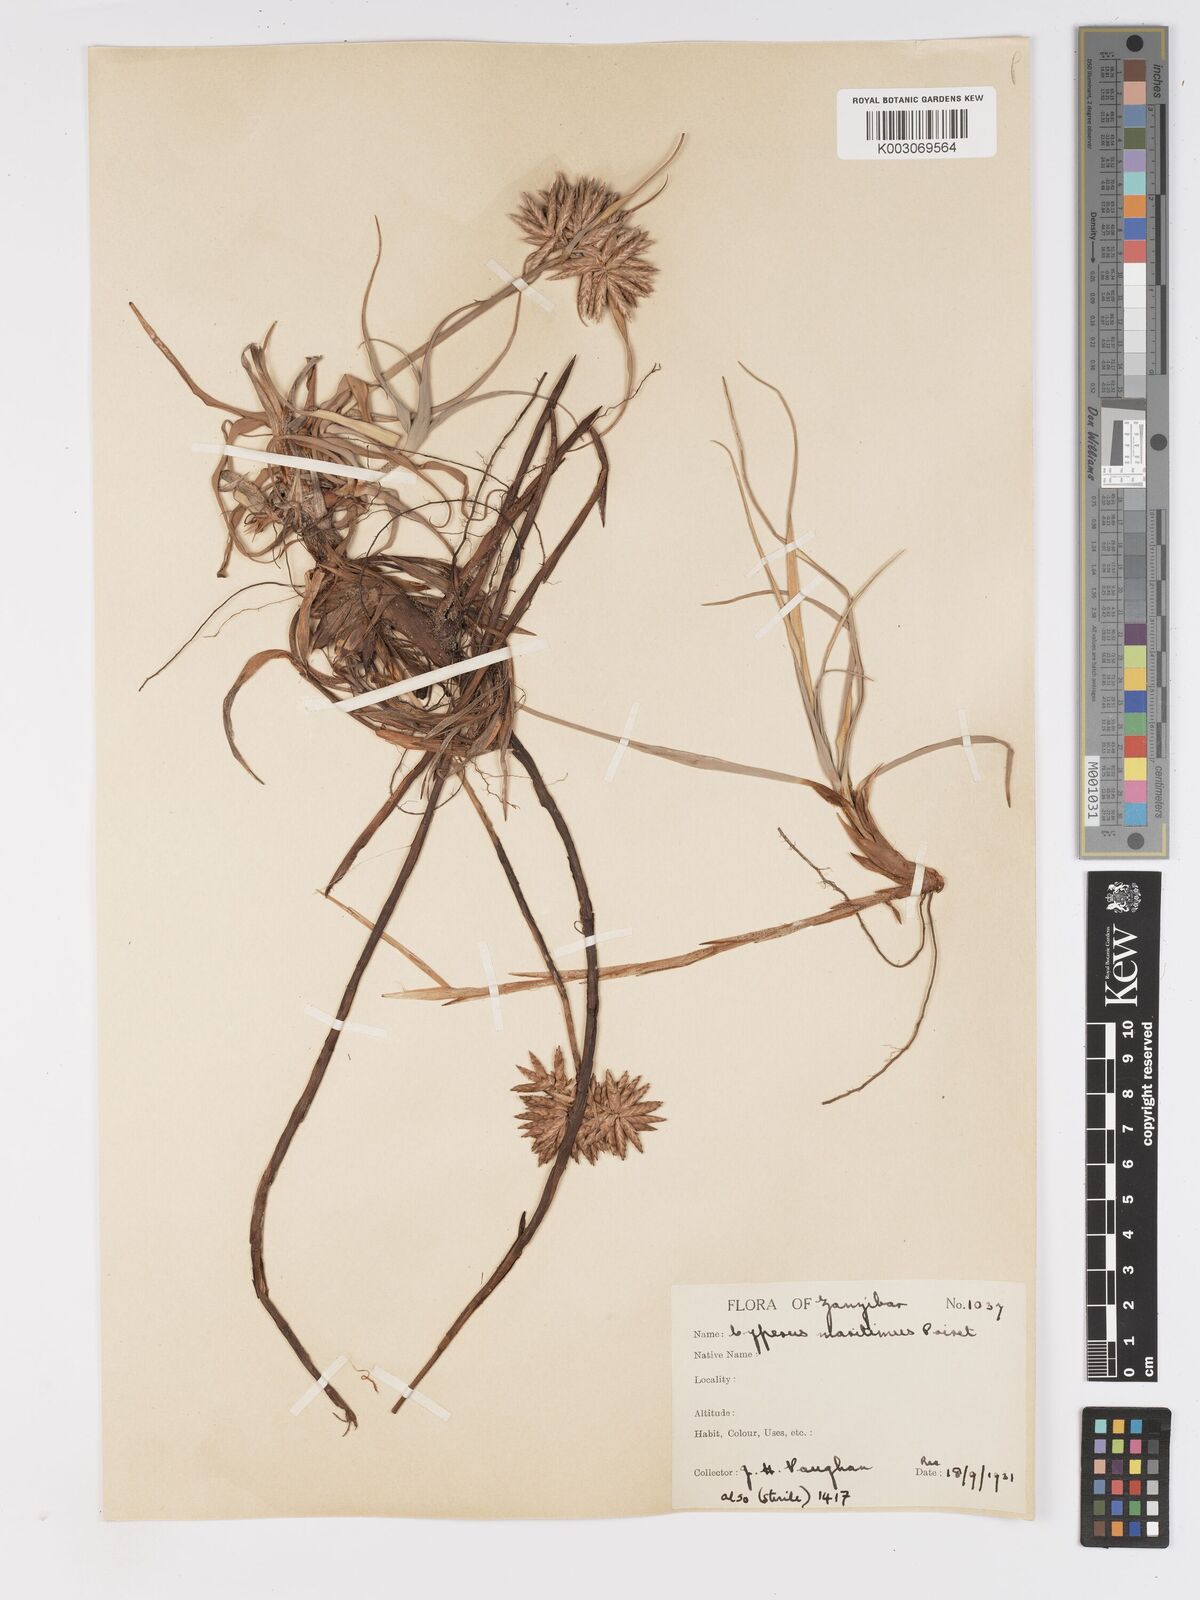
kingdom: Plantae
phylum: Tracheophyta
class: Liliopsida
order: Poales
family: Cyperaceae
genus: Cyperus
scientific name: Cyperus crassipes
